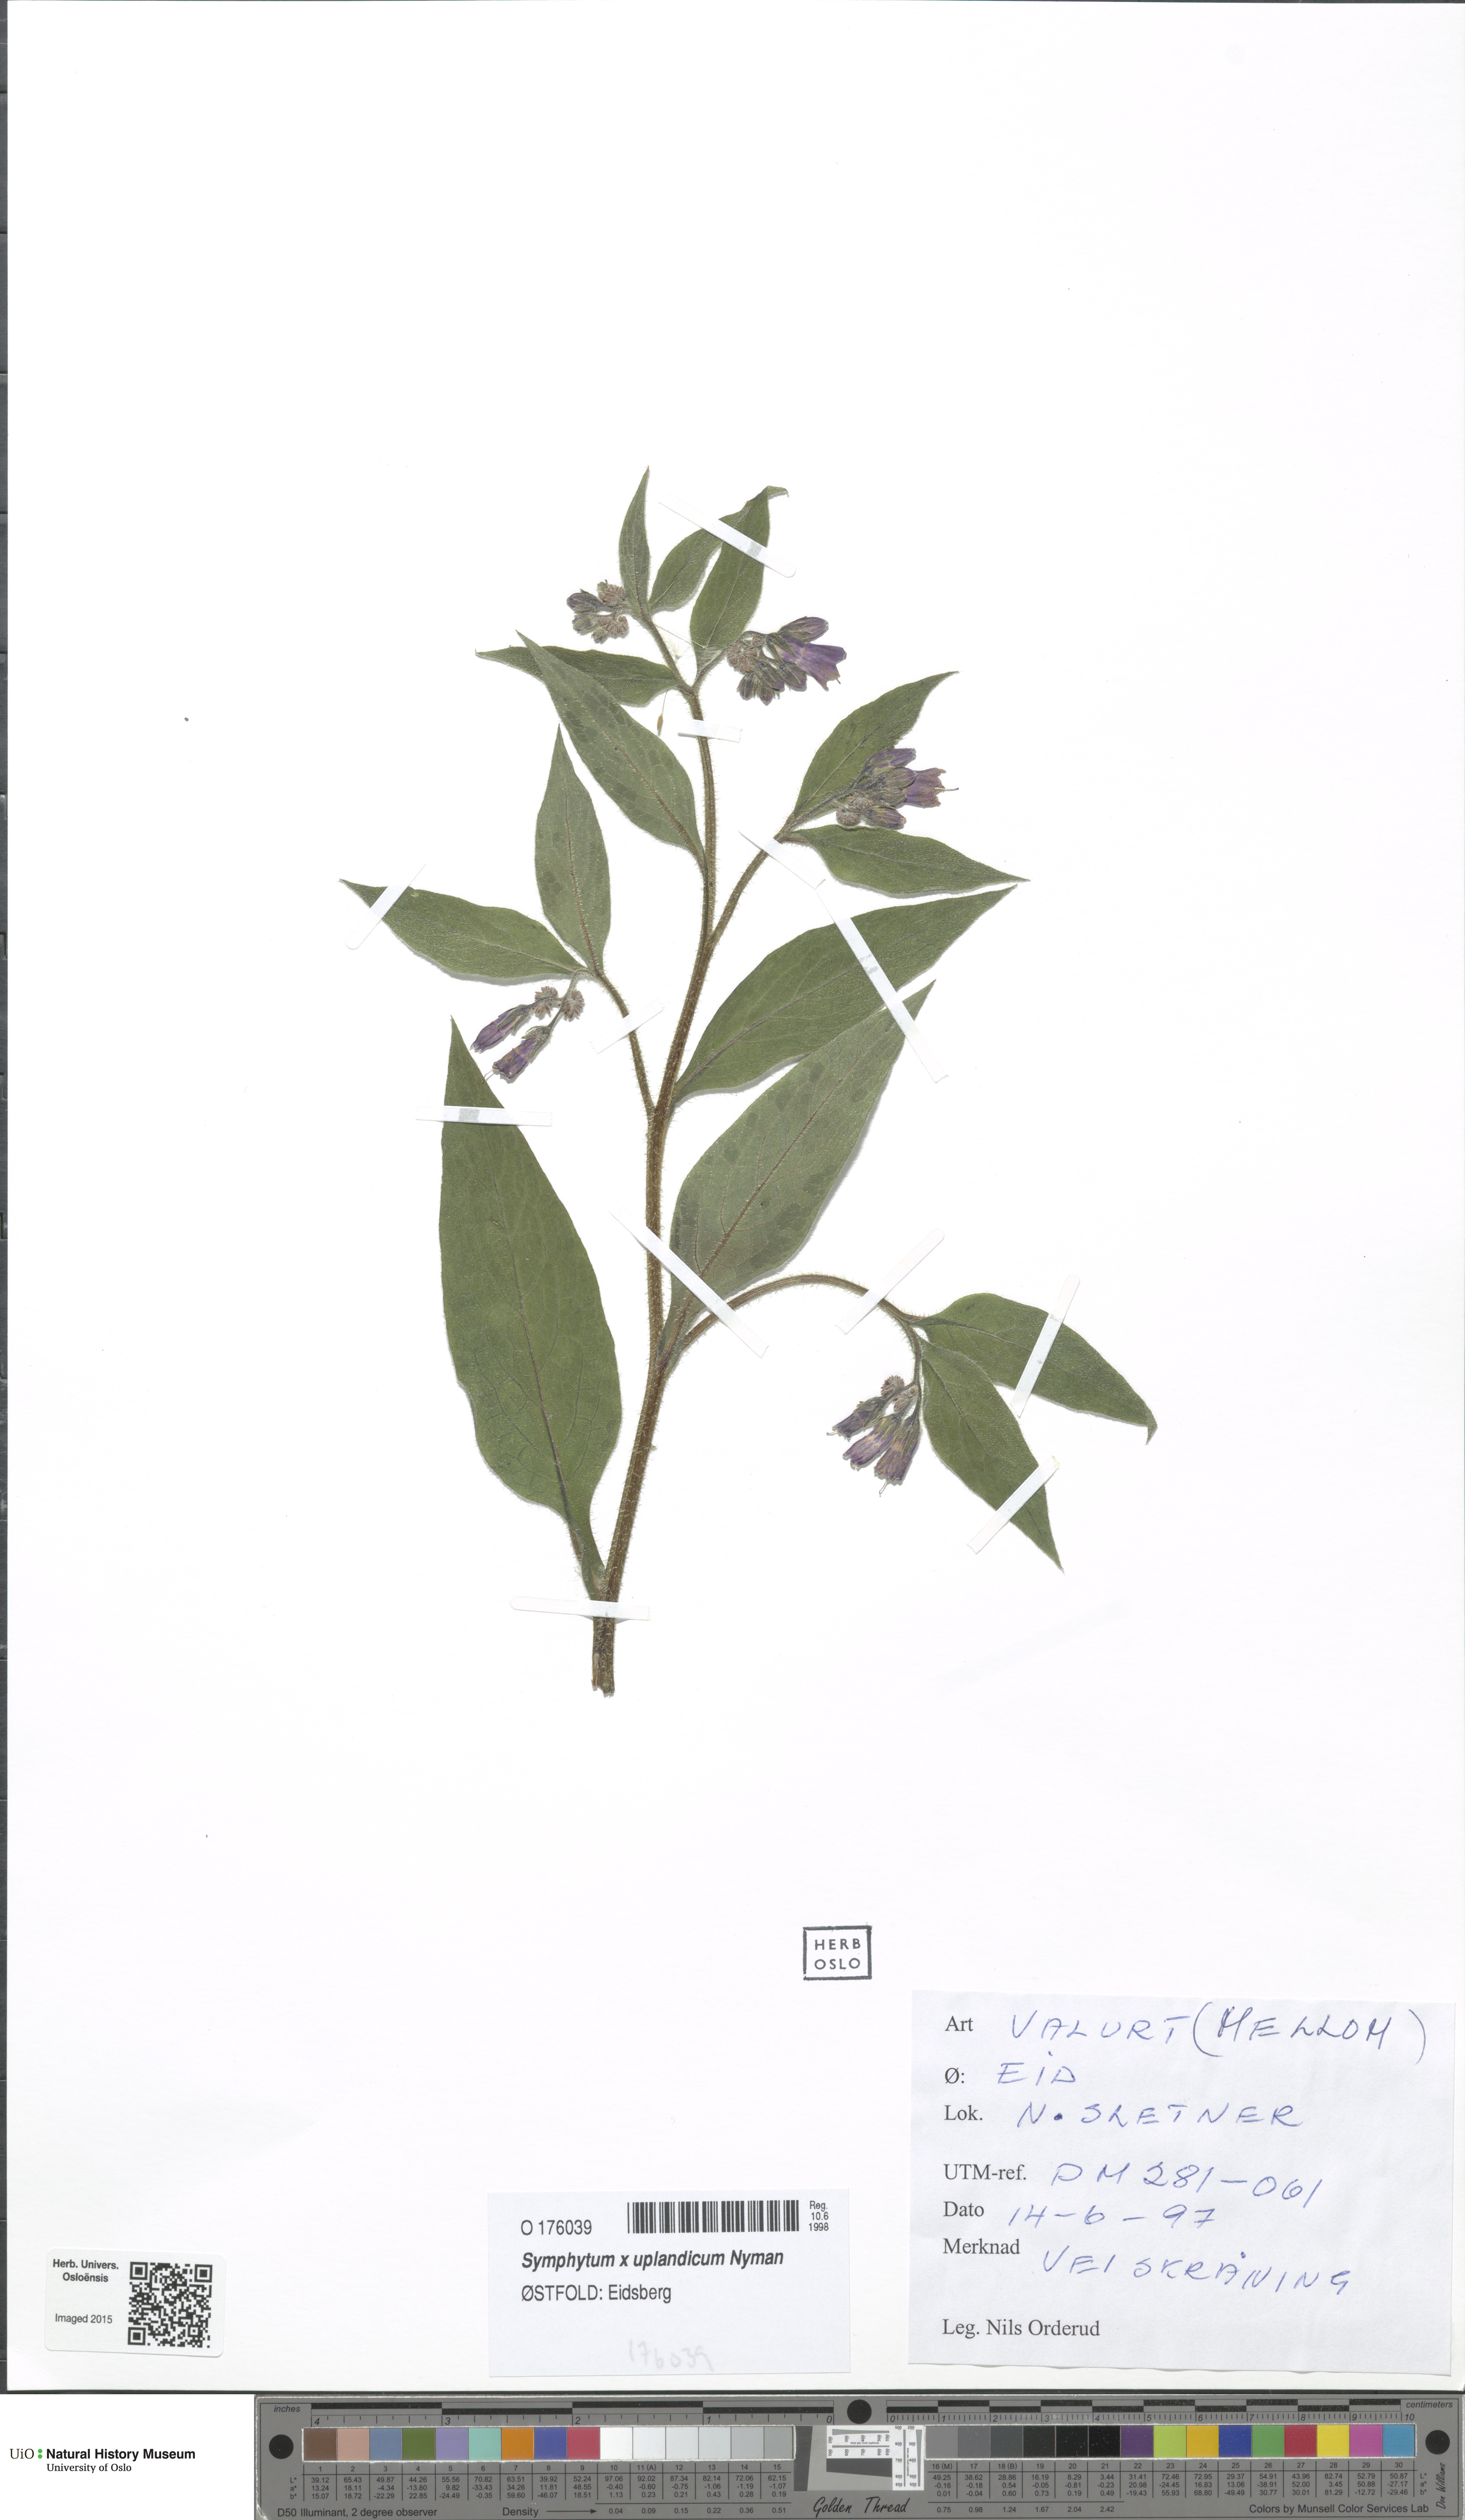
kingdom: Plantae
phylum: Tracheophyta
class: Magnoliopsida
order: Boraginales
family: Boraginaceae
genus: Symphytum
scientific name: Symphytum uplandicum
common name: Russian comfrey
